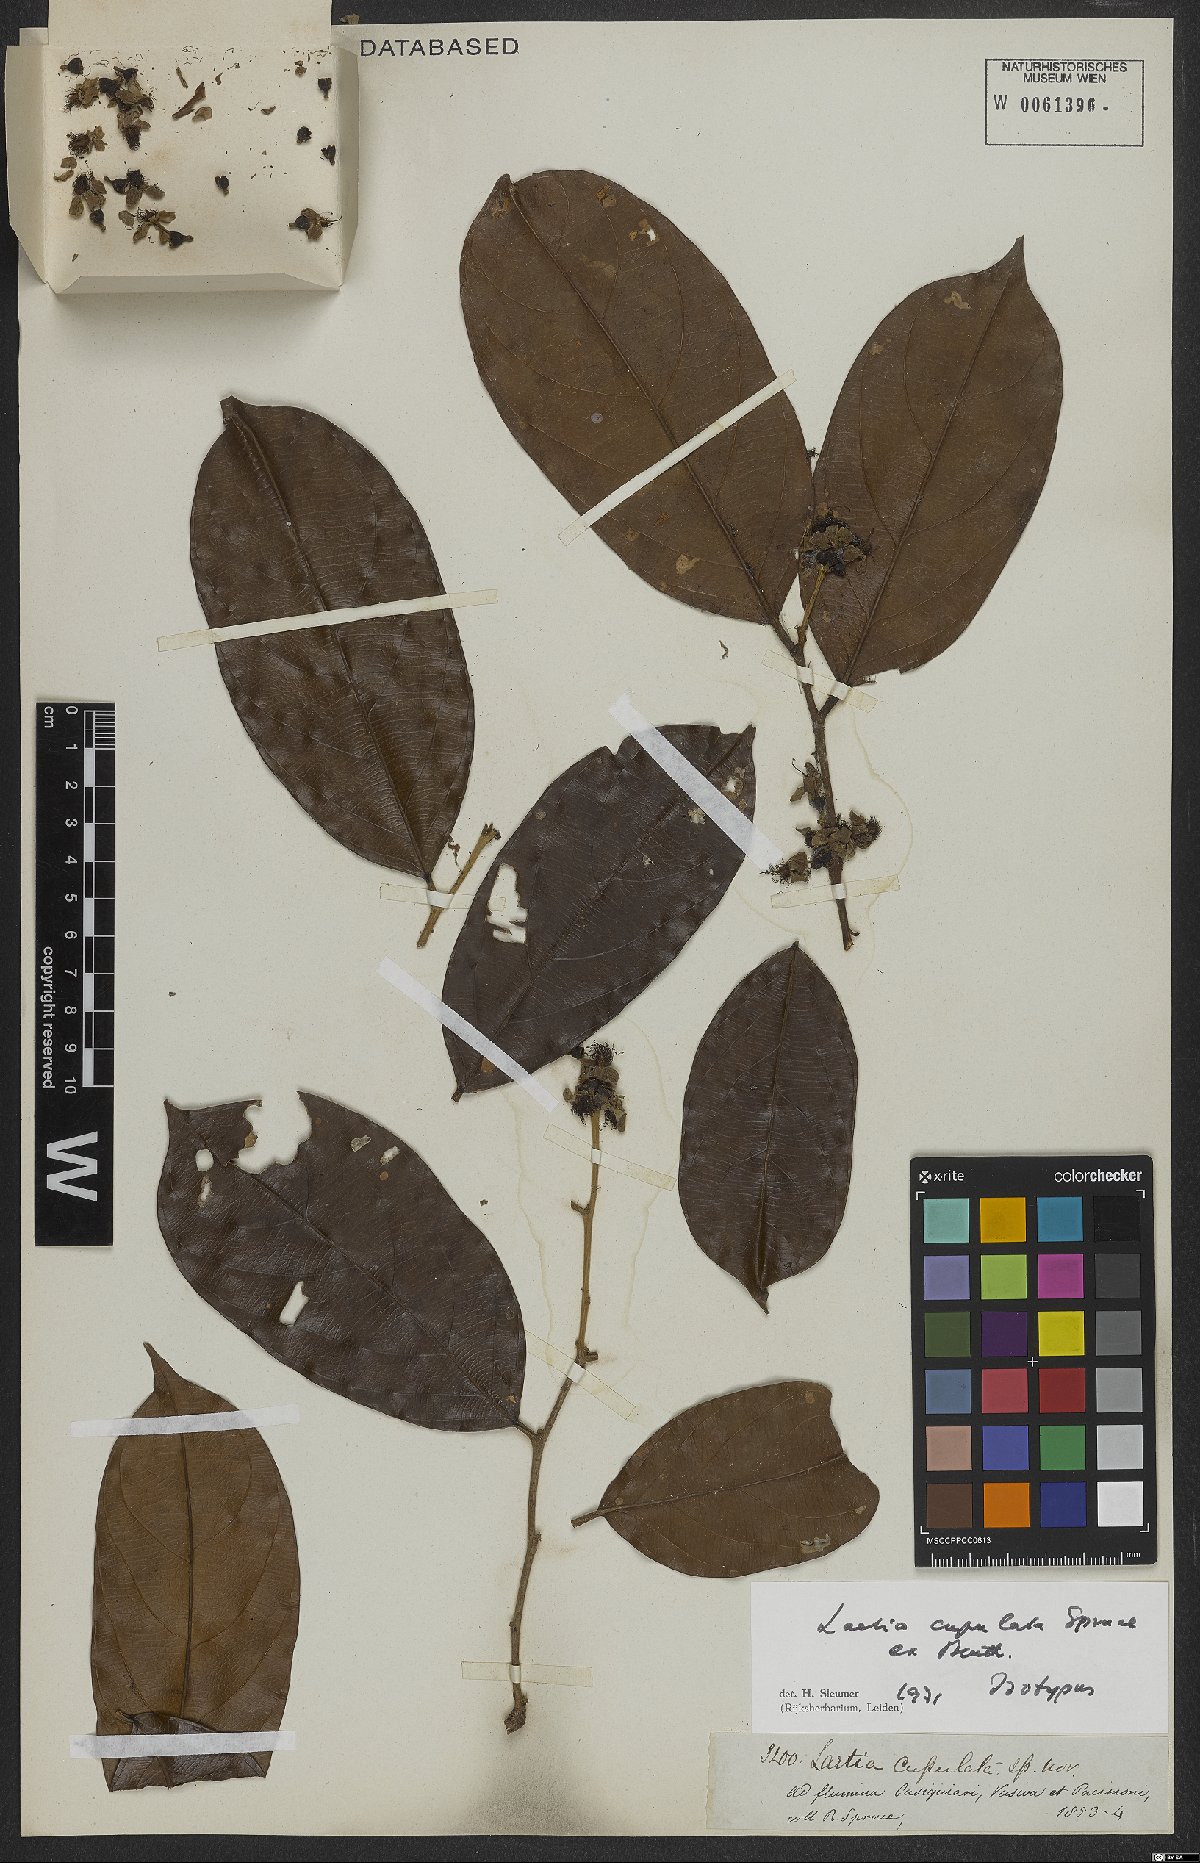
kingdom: Plantae
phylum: Tracheophyta
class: Magnoliopsida
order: Malpighiales
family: Salicaceae
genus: Irenodendron
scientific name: Irenodendron cupulatum
